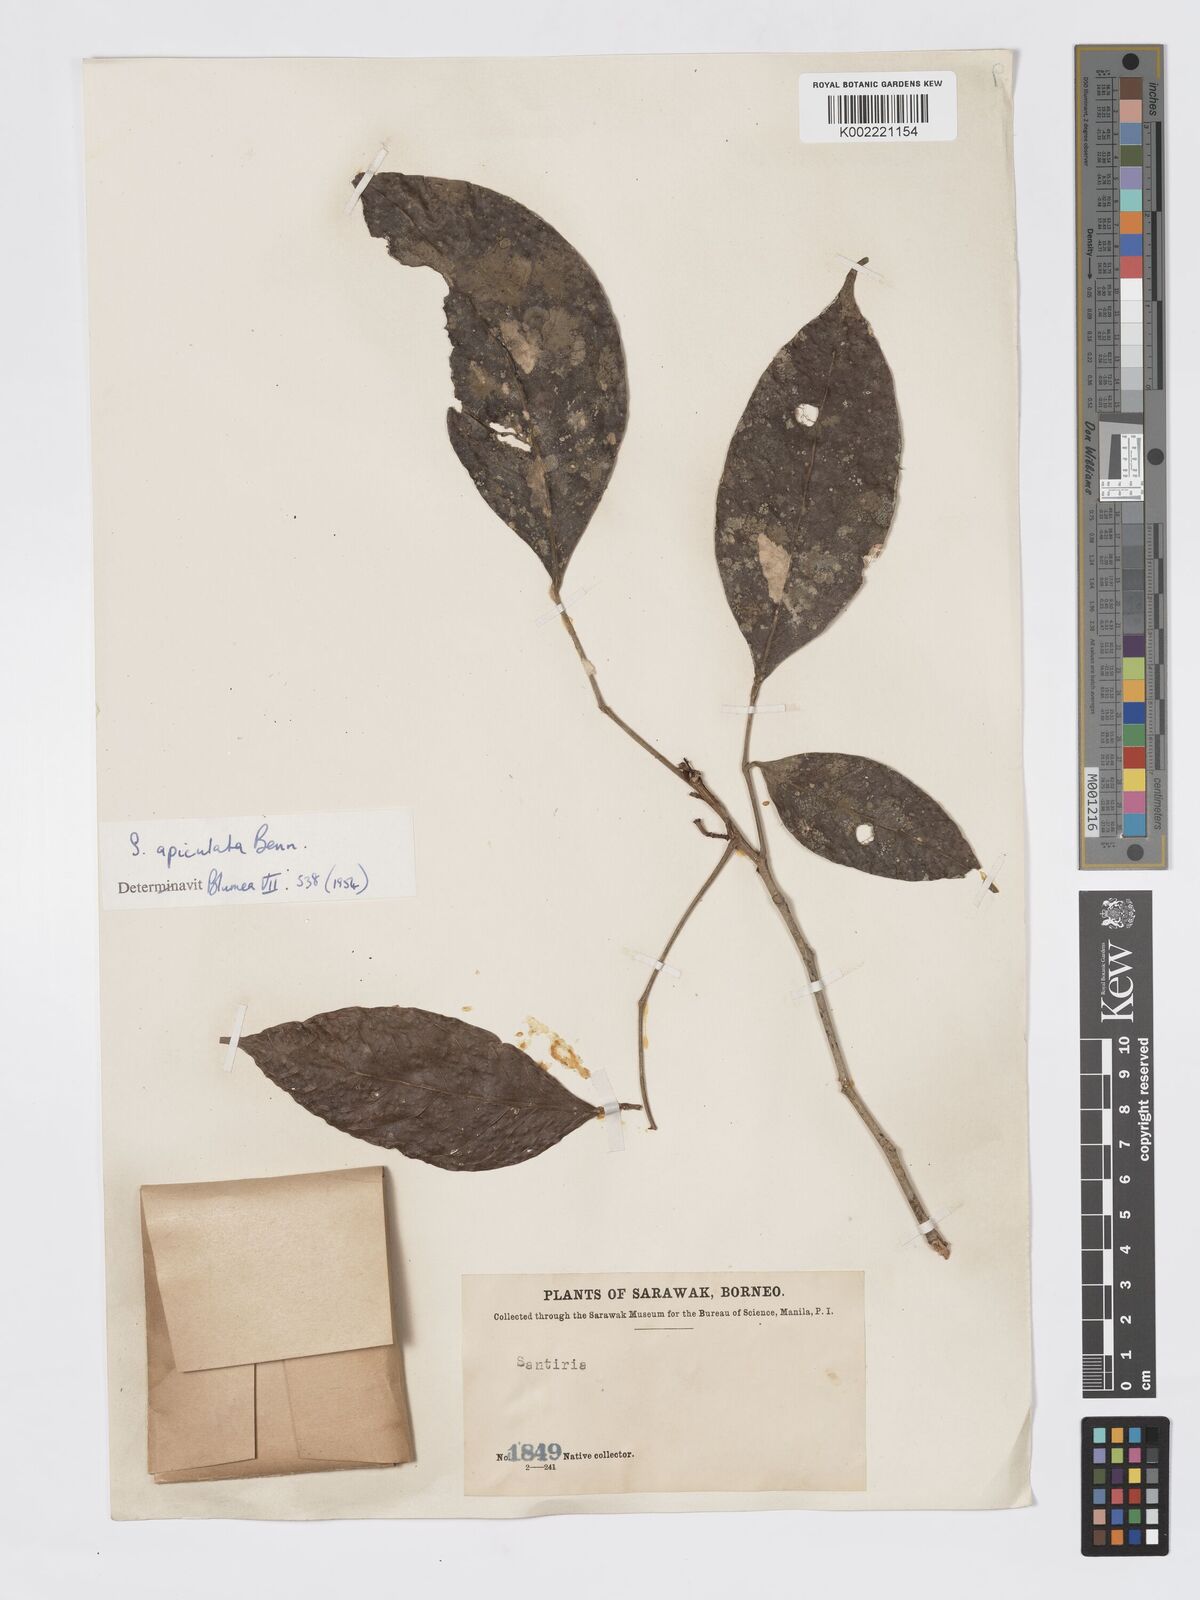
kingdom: Plantae
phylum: Tracheophyta
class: Magnoliopsida
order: Sapindales
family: Burseraceae
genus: Santiria
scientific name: Santiria apiculata
